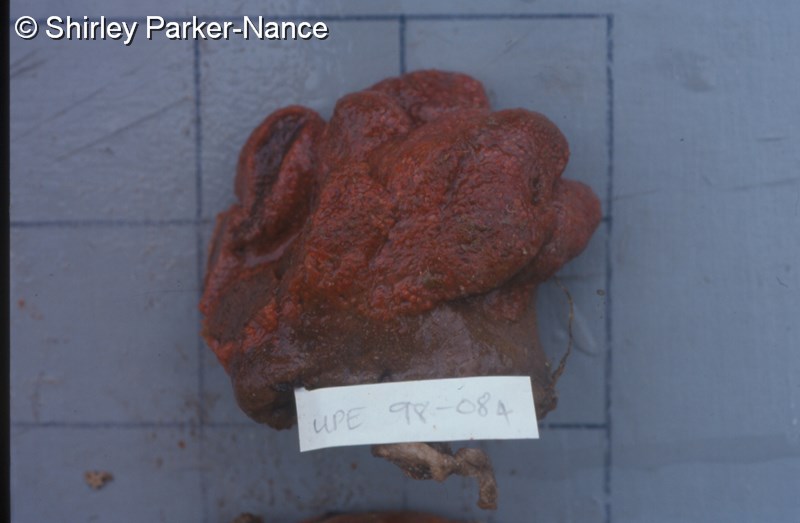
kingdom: Animalia
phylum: Chordata
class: Ascidiacea
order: Aplousobranchia
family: Pseudodistomidae
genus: Pseudodistoma
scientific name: Pseudodistoma
